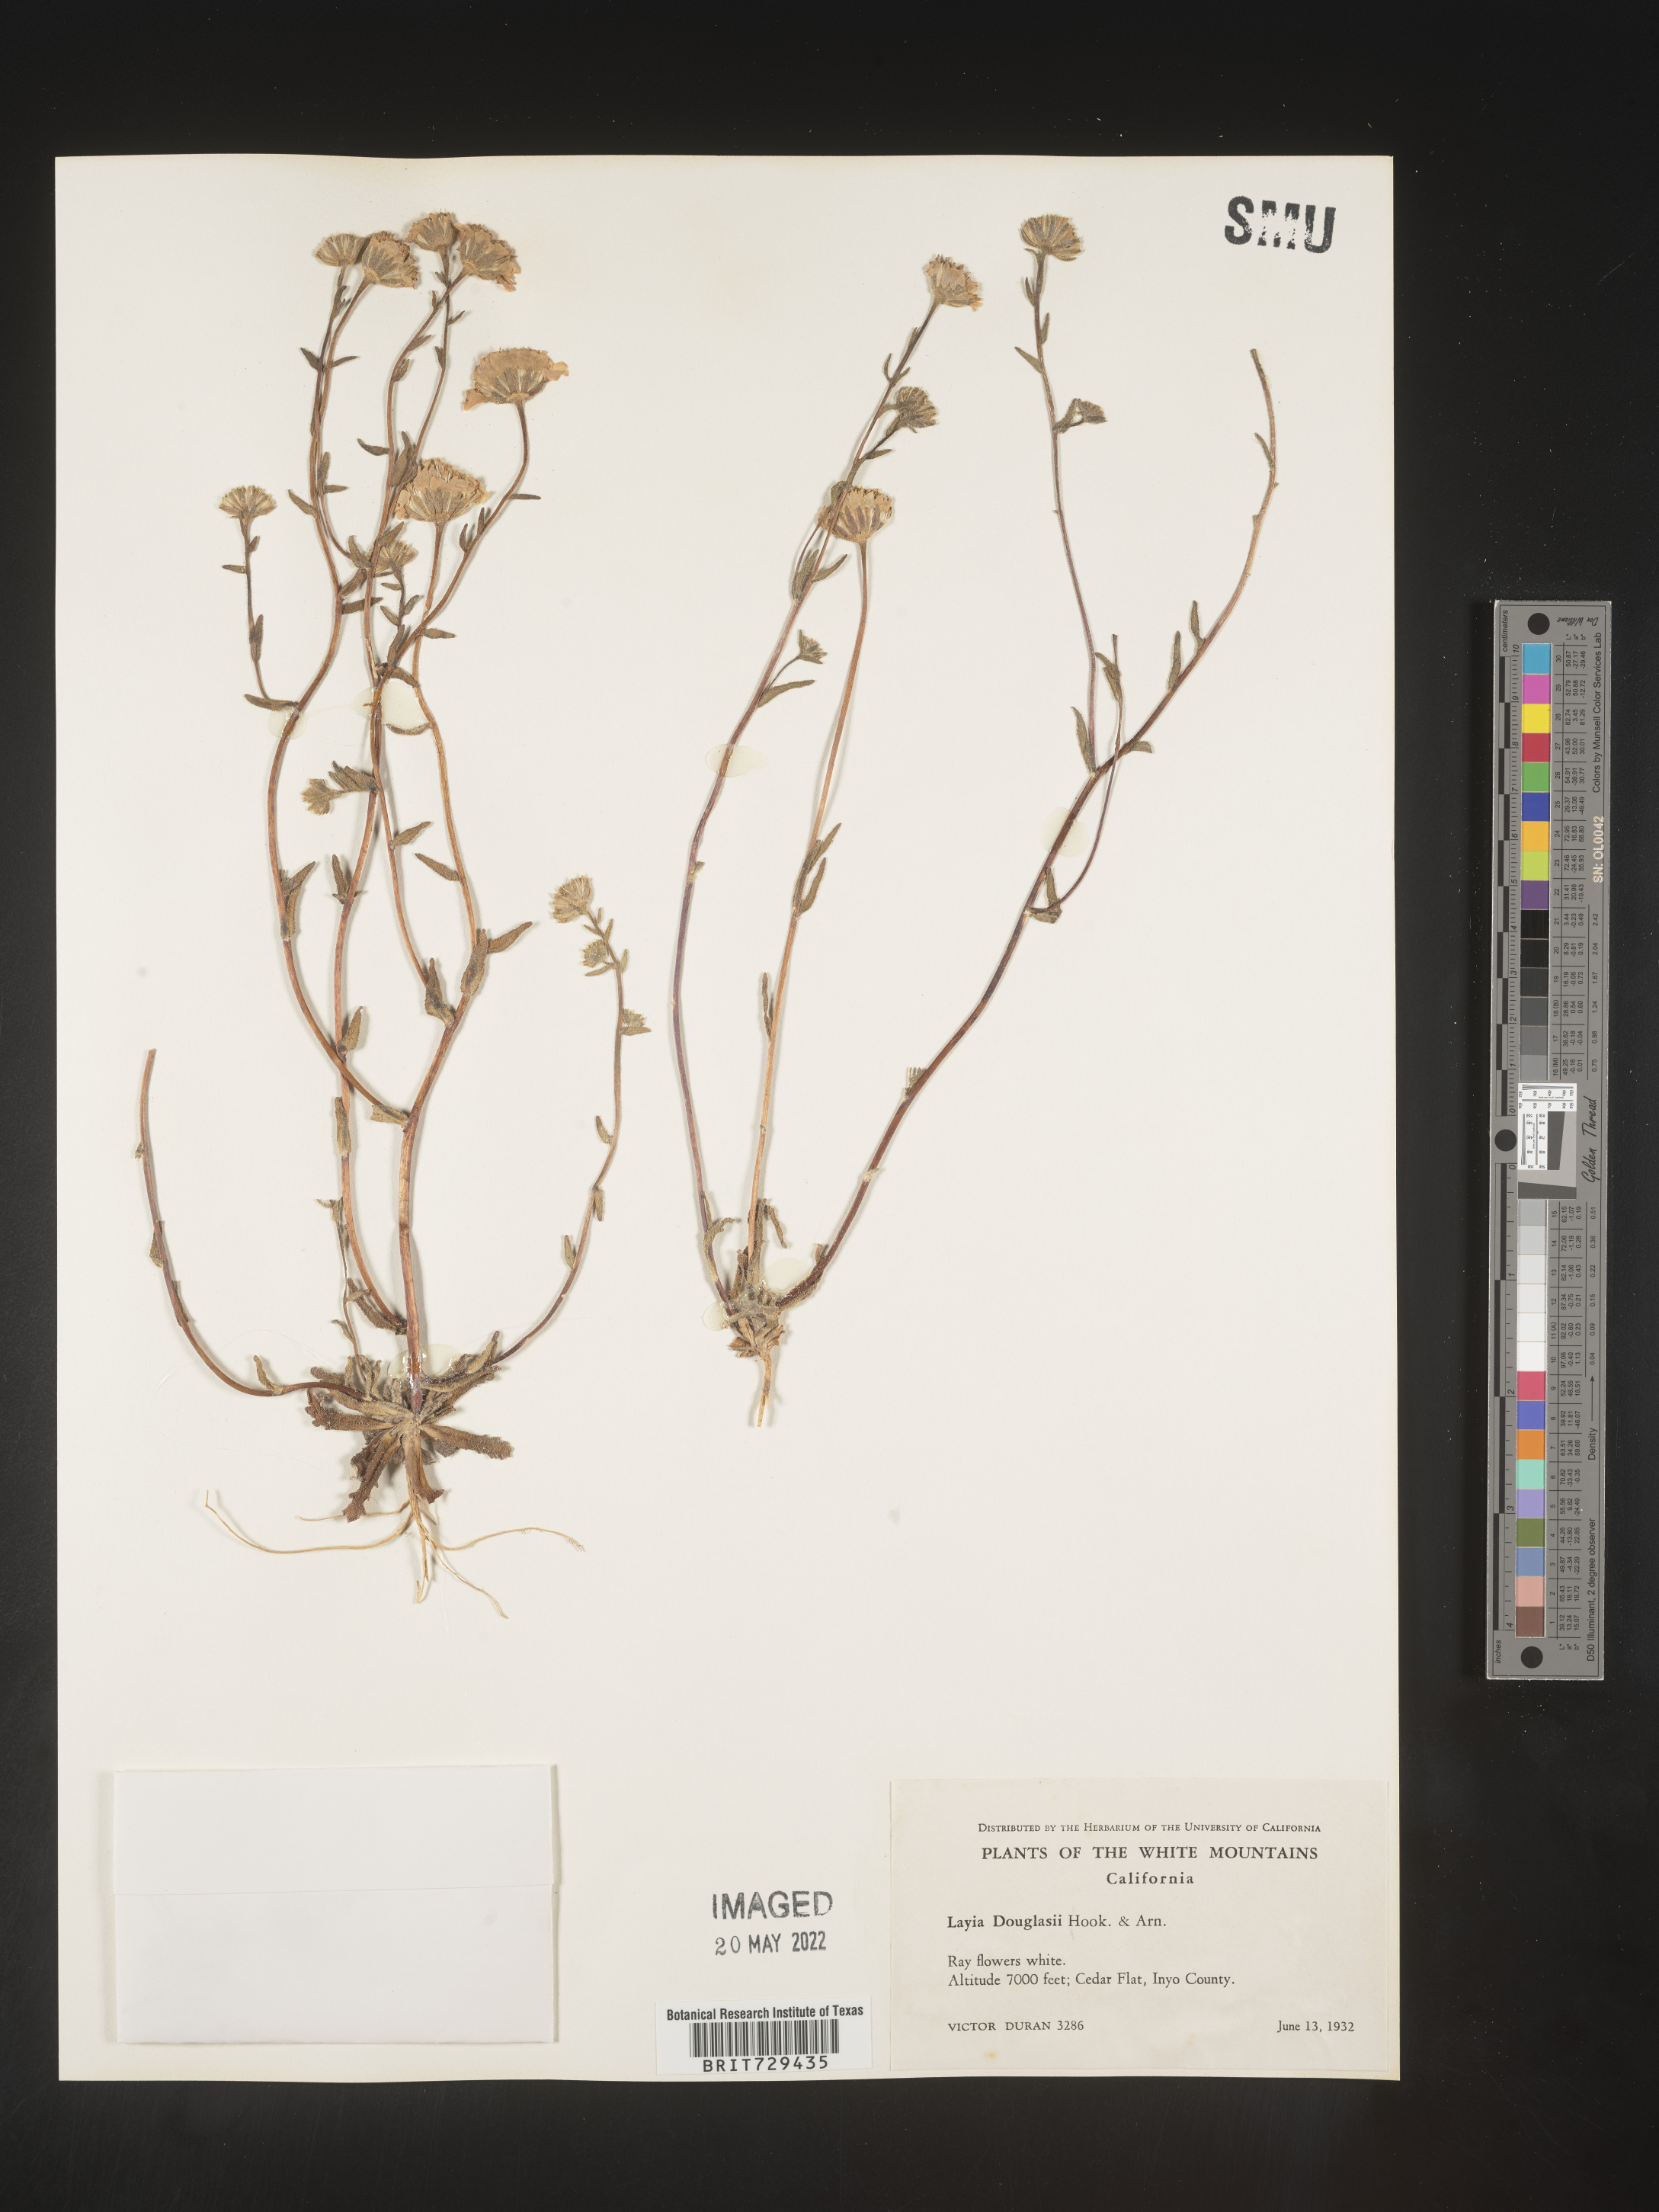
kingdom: Plantae
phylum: Tracheophyta
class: Magnoliopsida
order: Asterales
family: Asteraceae
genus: Layia
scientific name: Layia
